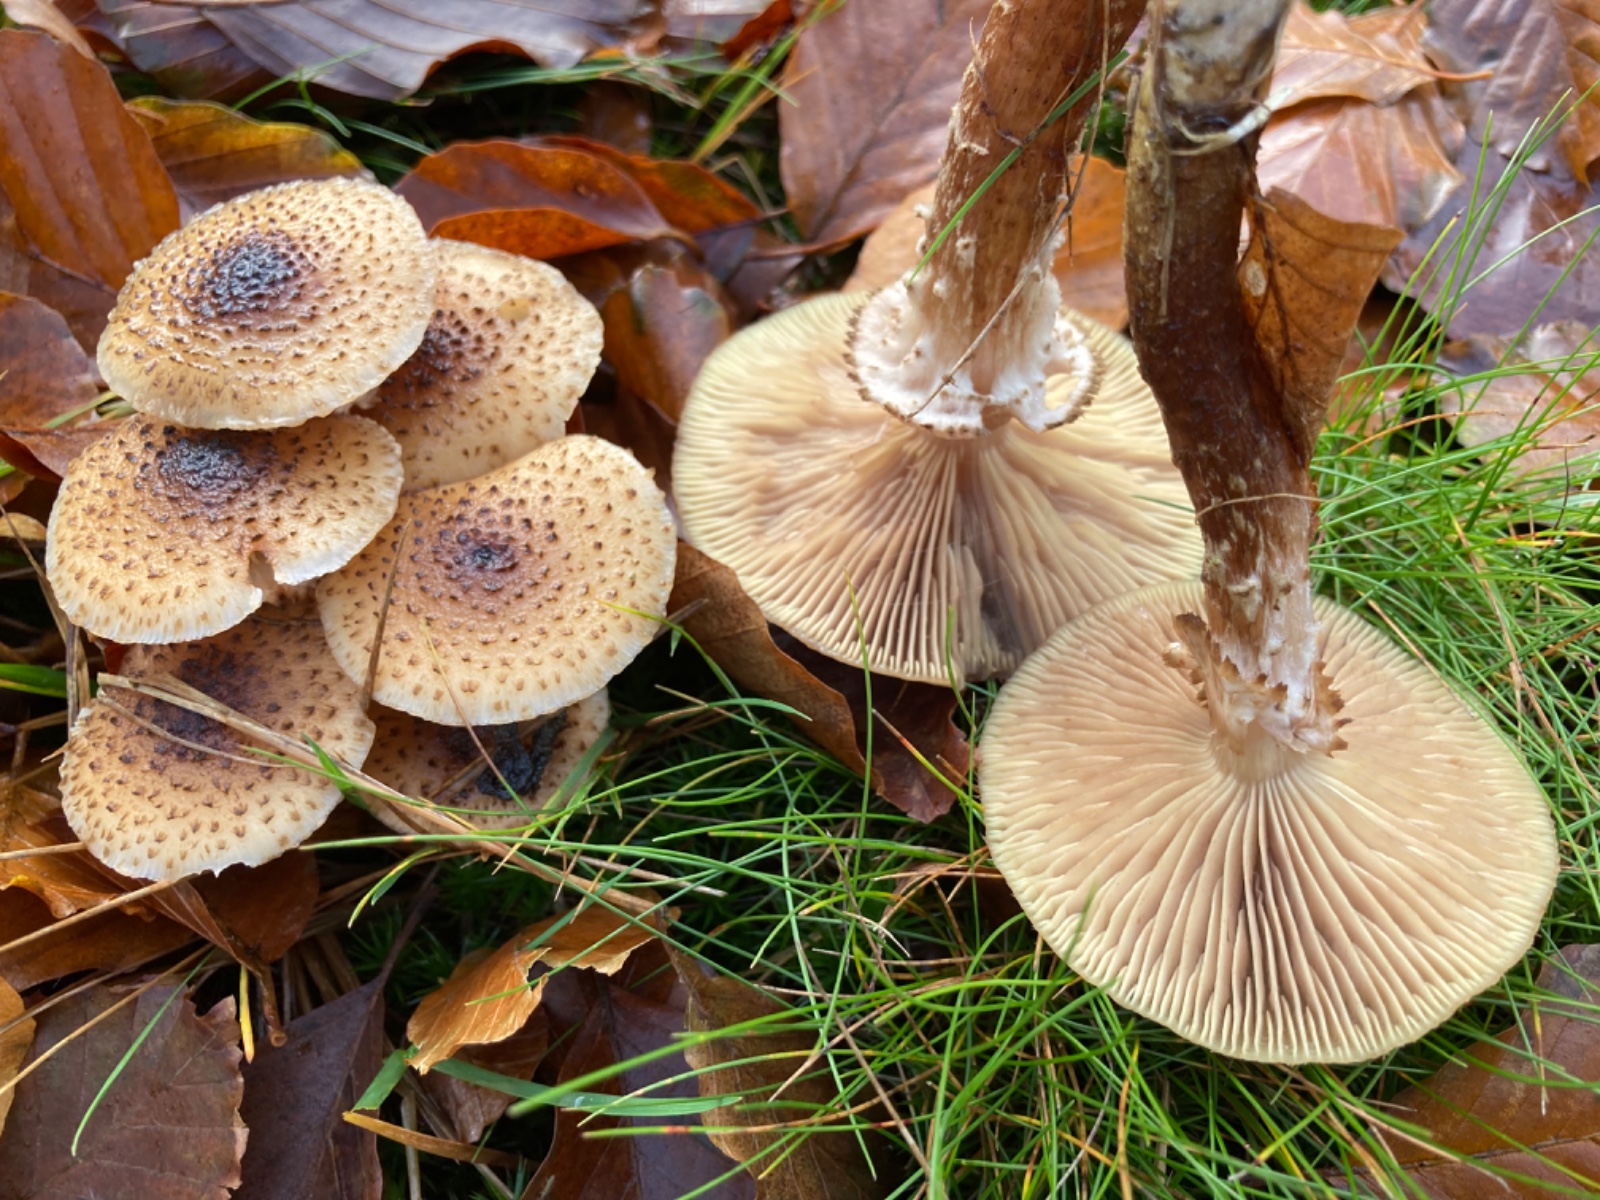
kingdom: Fungi
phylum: Basidiomycota
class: Agaricomycetes
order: Agaricales
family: Physalacriaceae
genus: Armillaria
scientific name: Armillaria ostoyae
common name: mørk honningsvamp
